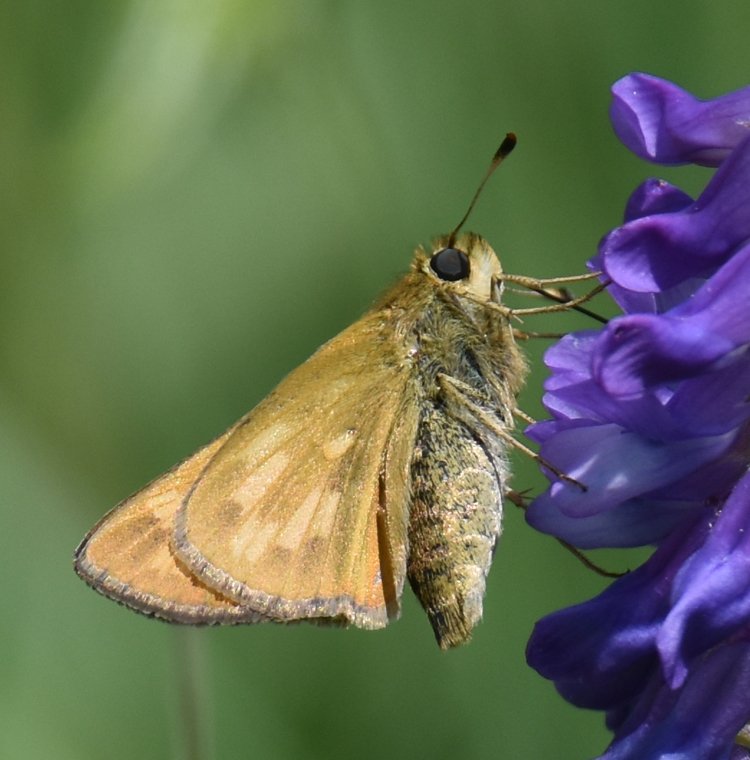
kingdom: Animalia
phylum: Arthropoda
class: Insecta
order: Lepidoptera
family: Hesperiidae
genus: Hesperia
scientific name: Hesperia sassacus
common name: Sassacus Skipper
